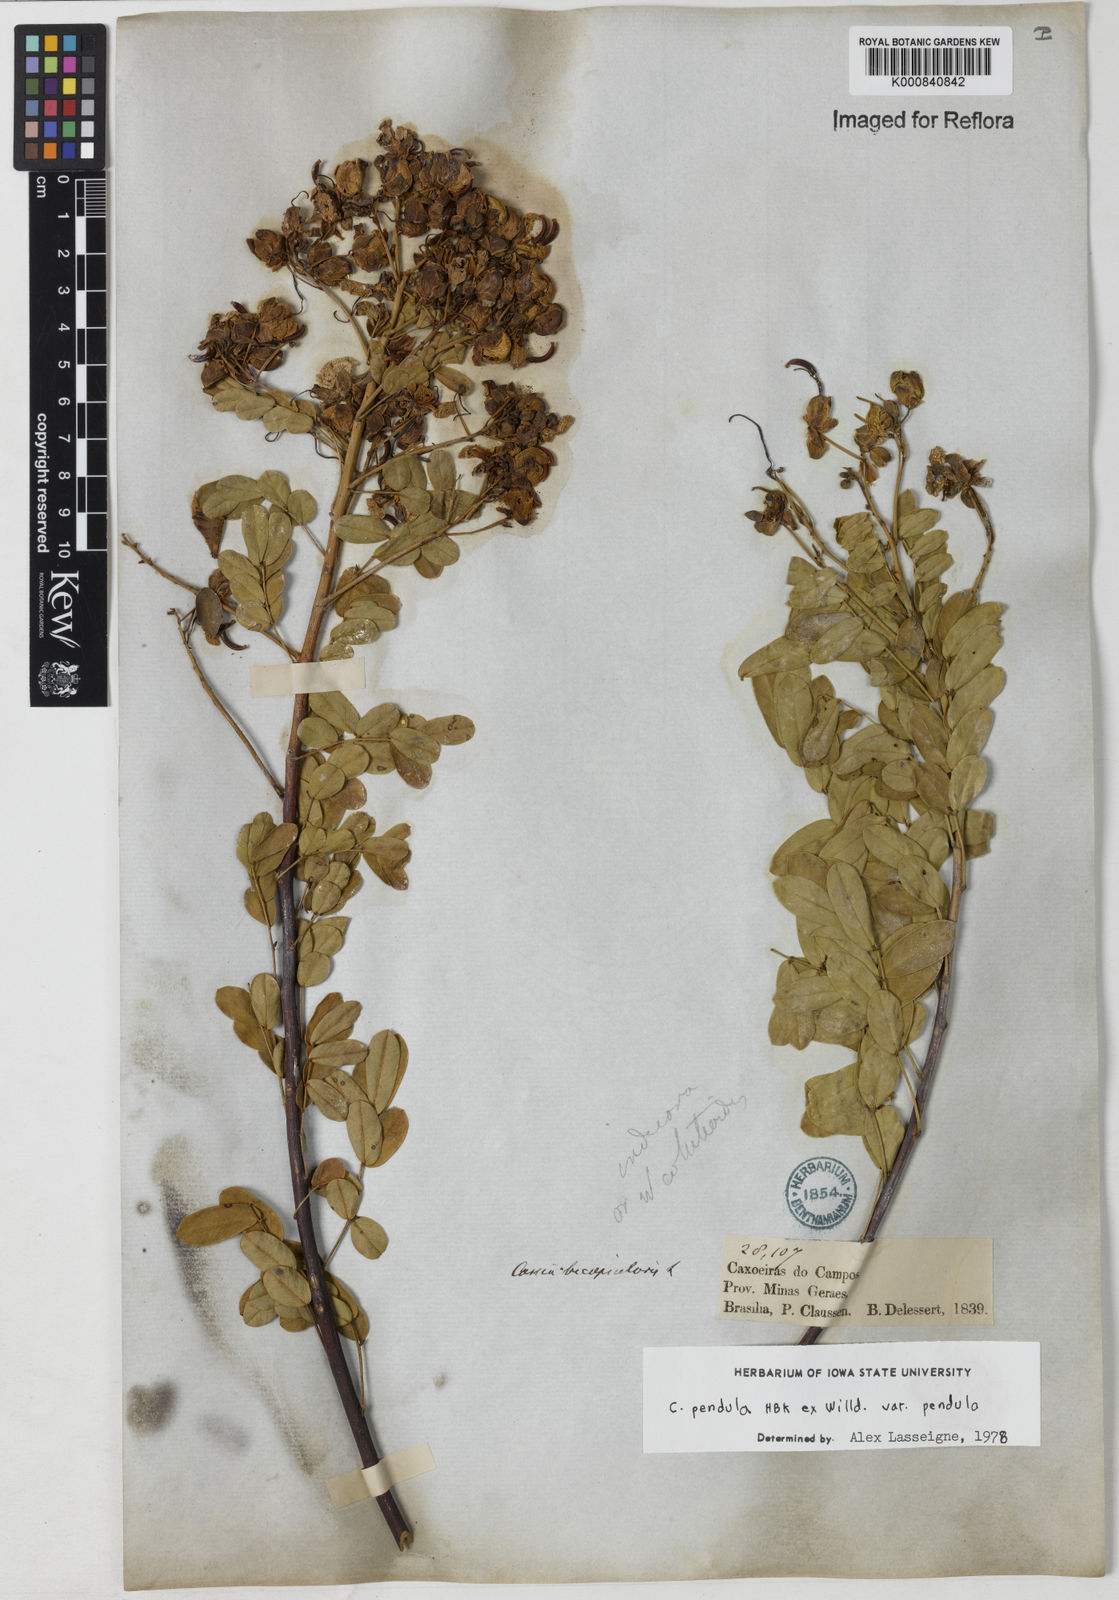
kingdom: Plantae
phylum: Tracheophyta
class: Magnoliopsida
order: Fabales
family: Fabaceae
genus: Senna
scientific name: Senna pendula
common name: Easter cassia
